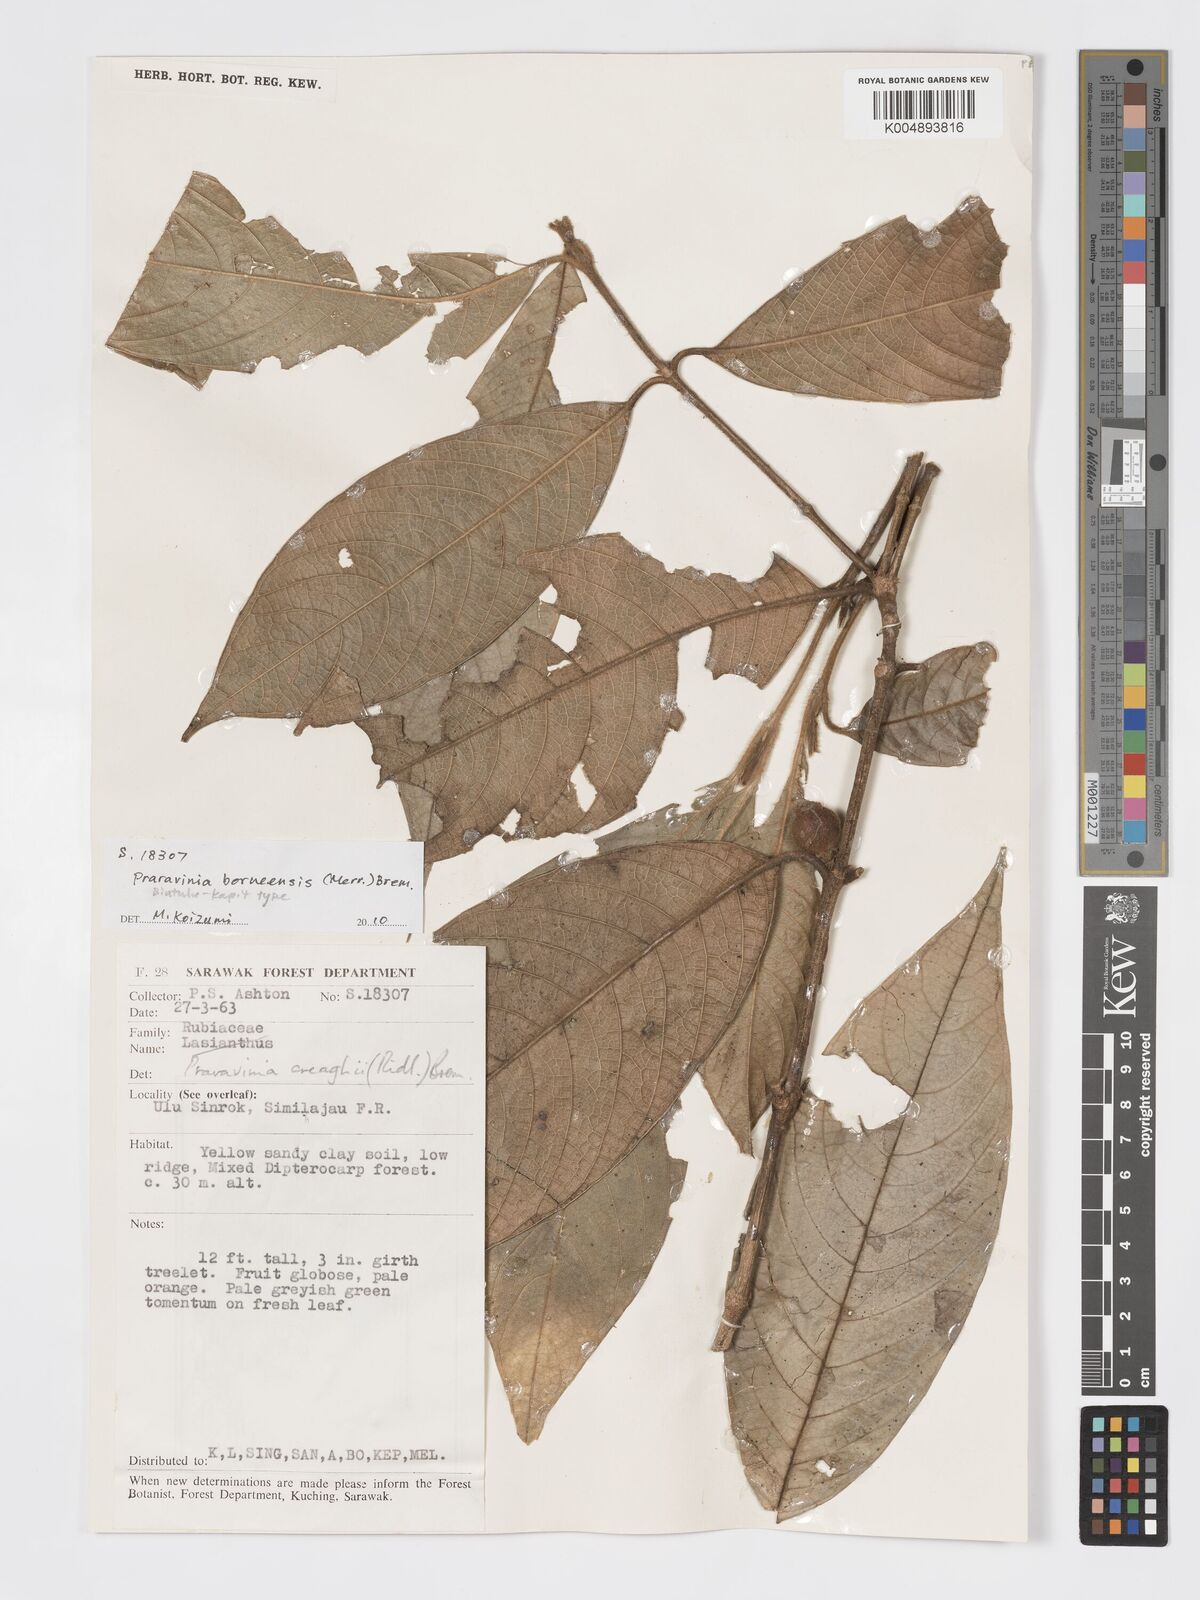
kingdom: Plantae
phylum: Tracheophyta
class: Magnoliopsida
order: Gentianales
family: Rubiaceae
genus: Praravinia
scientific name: Praravinia borneensis
